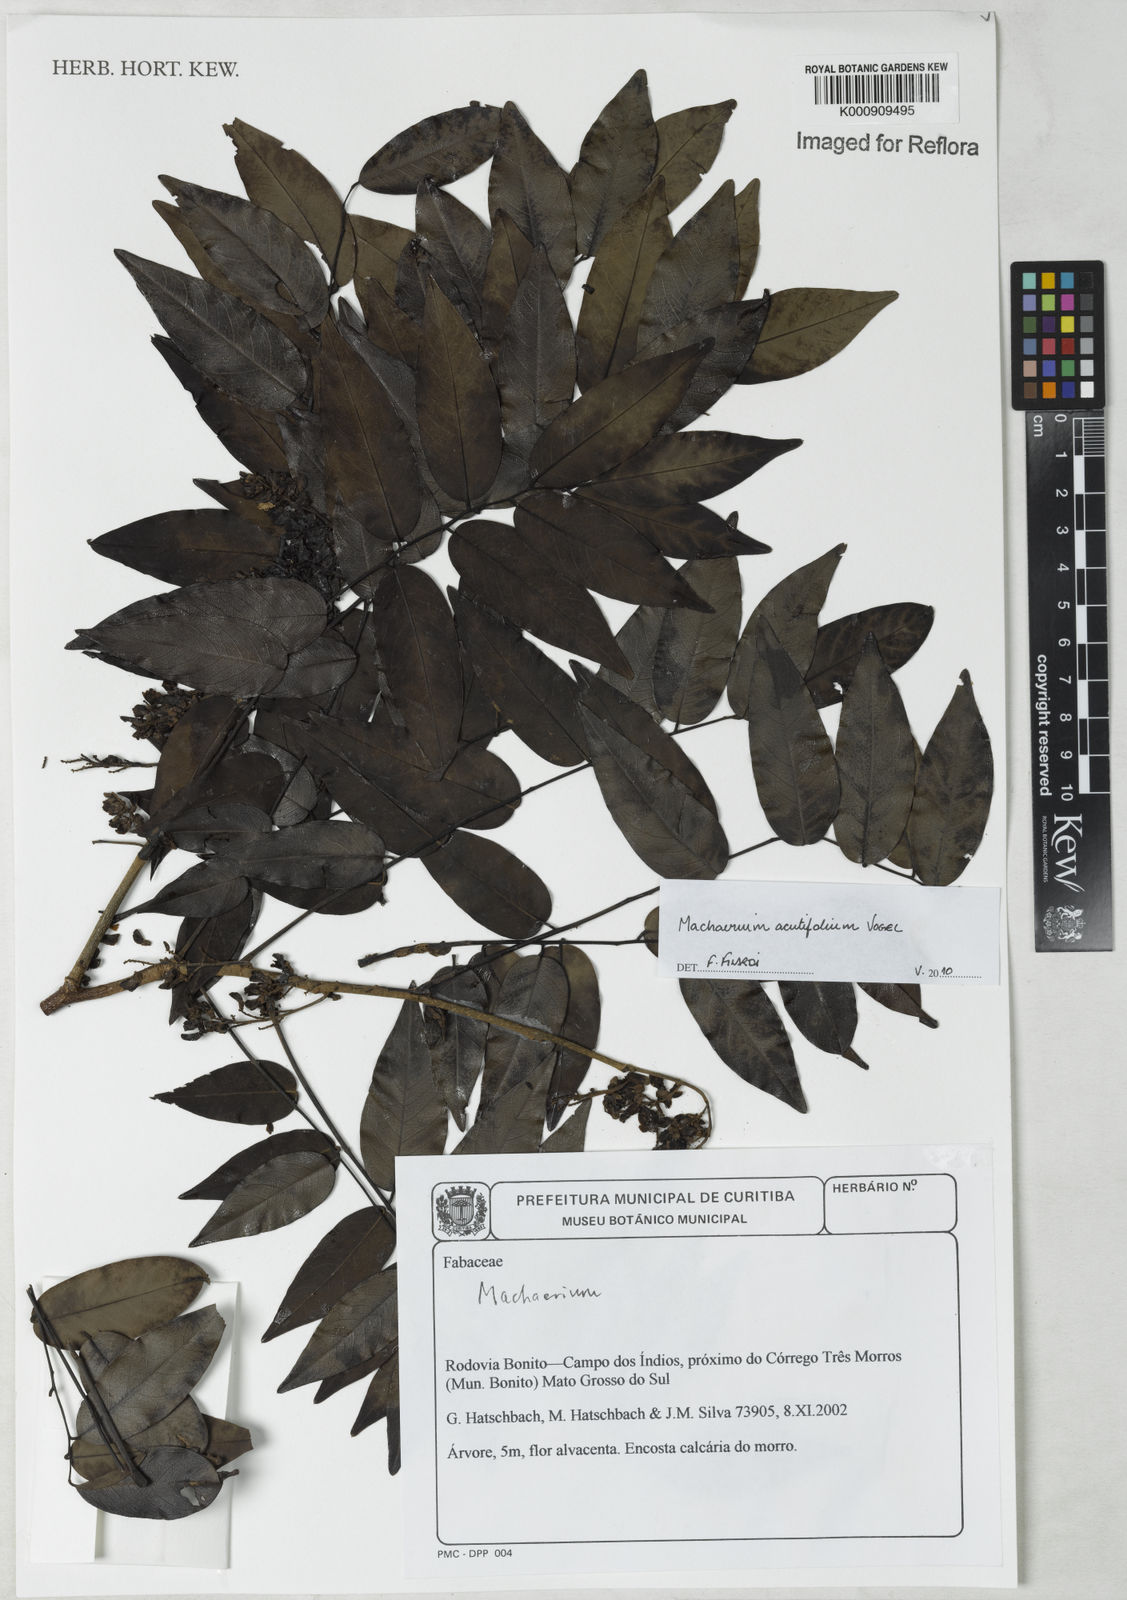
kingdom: Plantae
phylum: Tracheophyta
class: Magnoliopsida
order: Fabales
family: Fabaceae
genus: Machaerium
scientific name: Machaerium acutifolium
